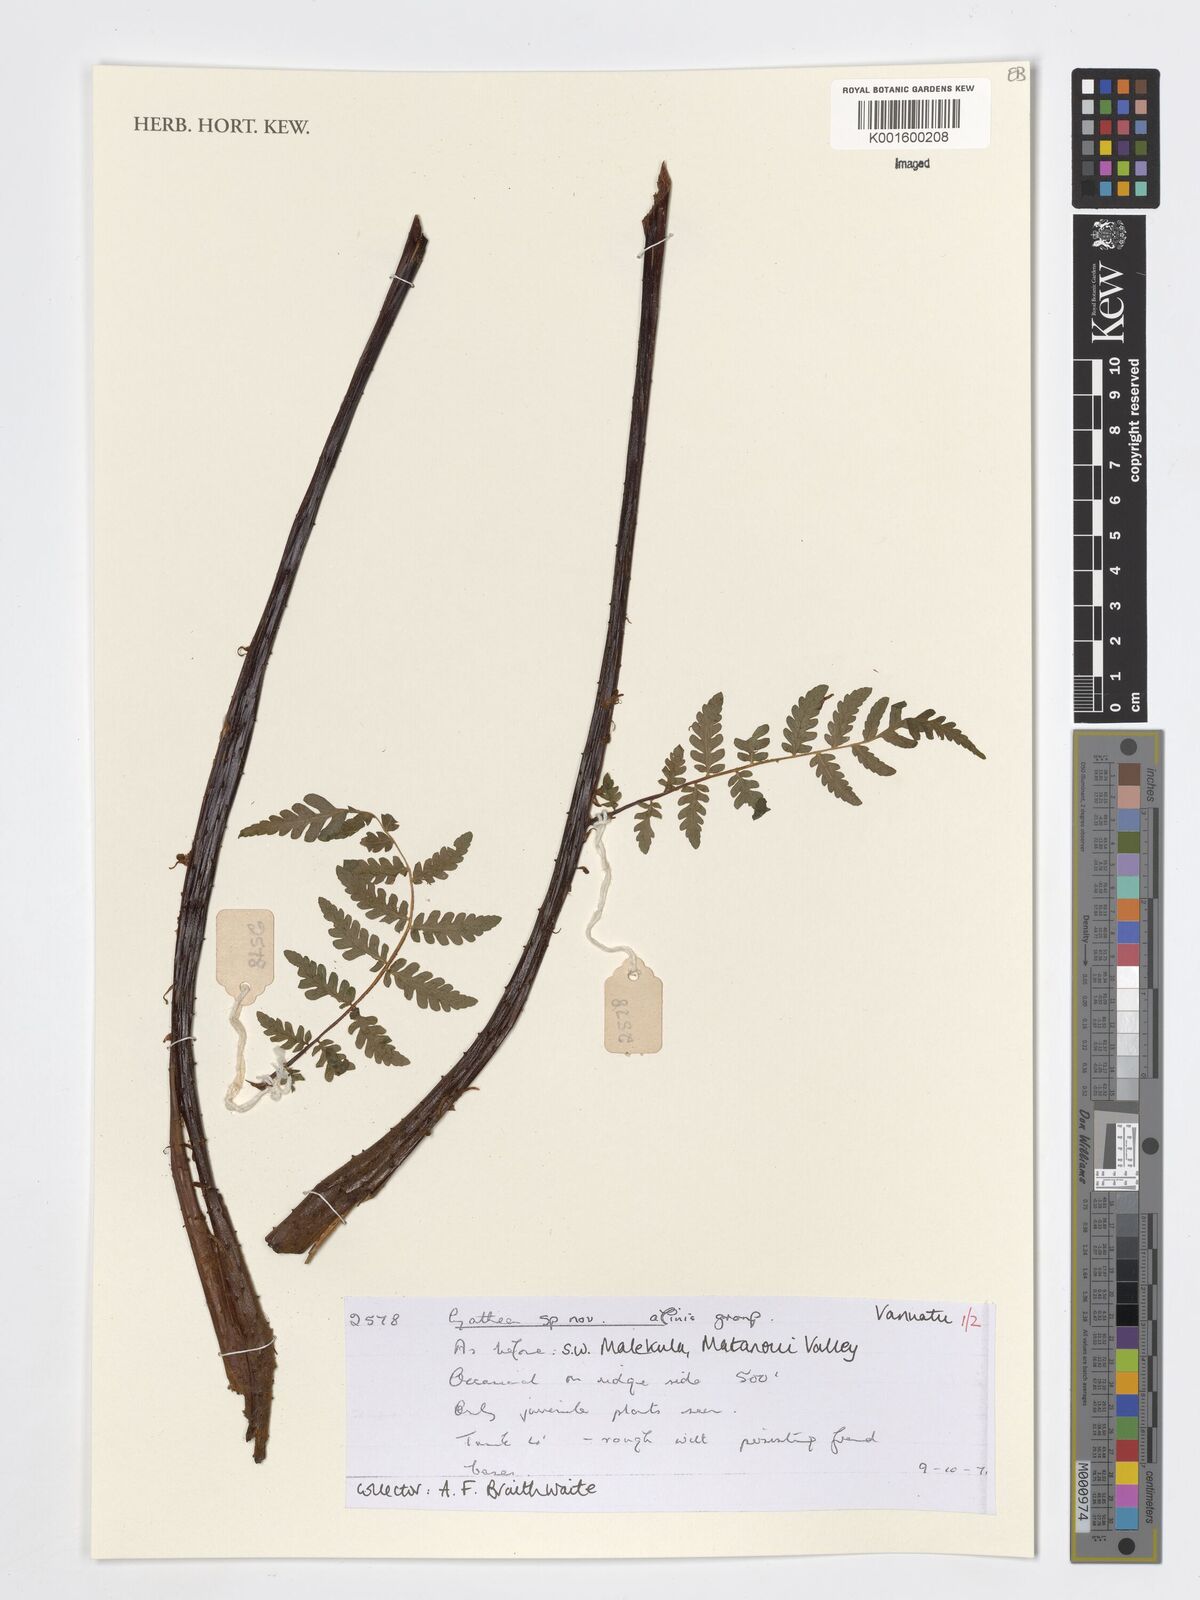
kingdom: Plantae
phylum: Tracheophyta
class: Polypodiopsida
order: Cyatheales
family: Cyatheaceae
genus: Cyathea
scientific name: Cyathea
